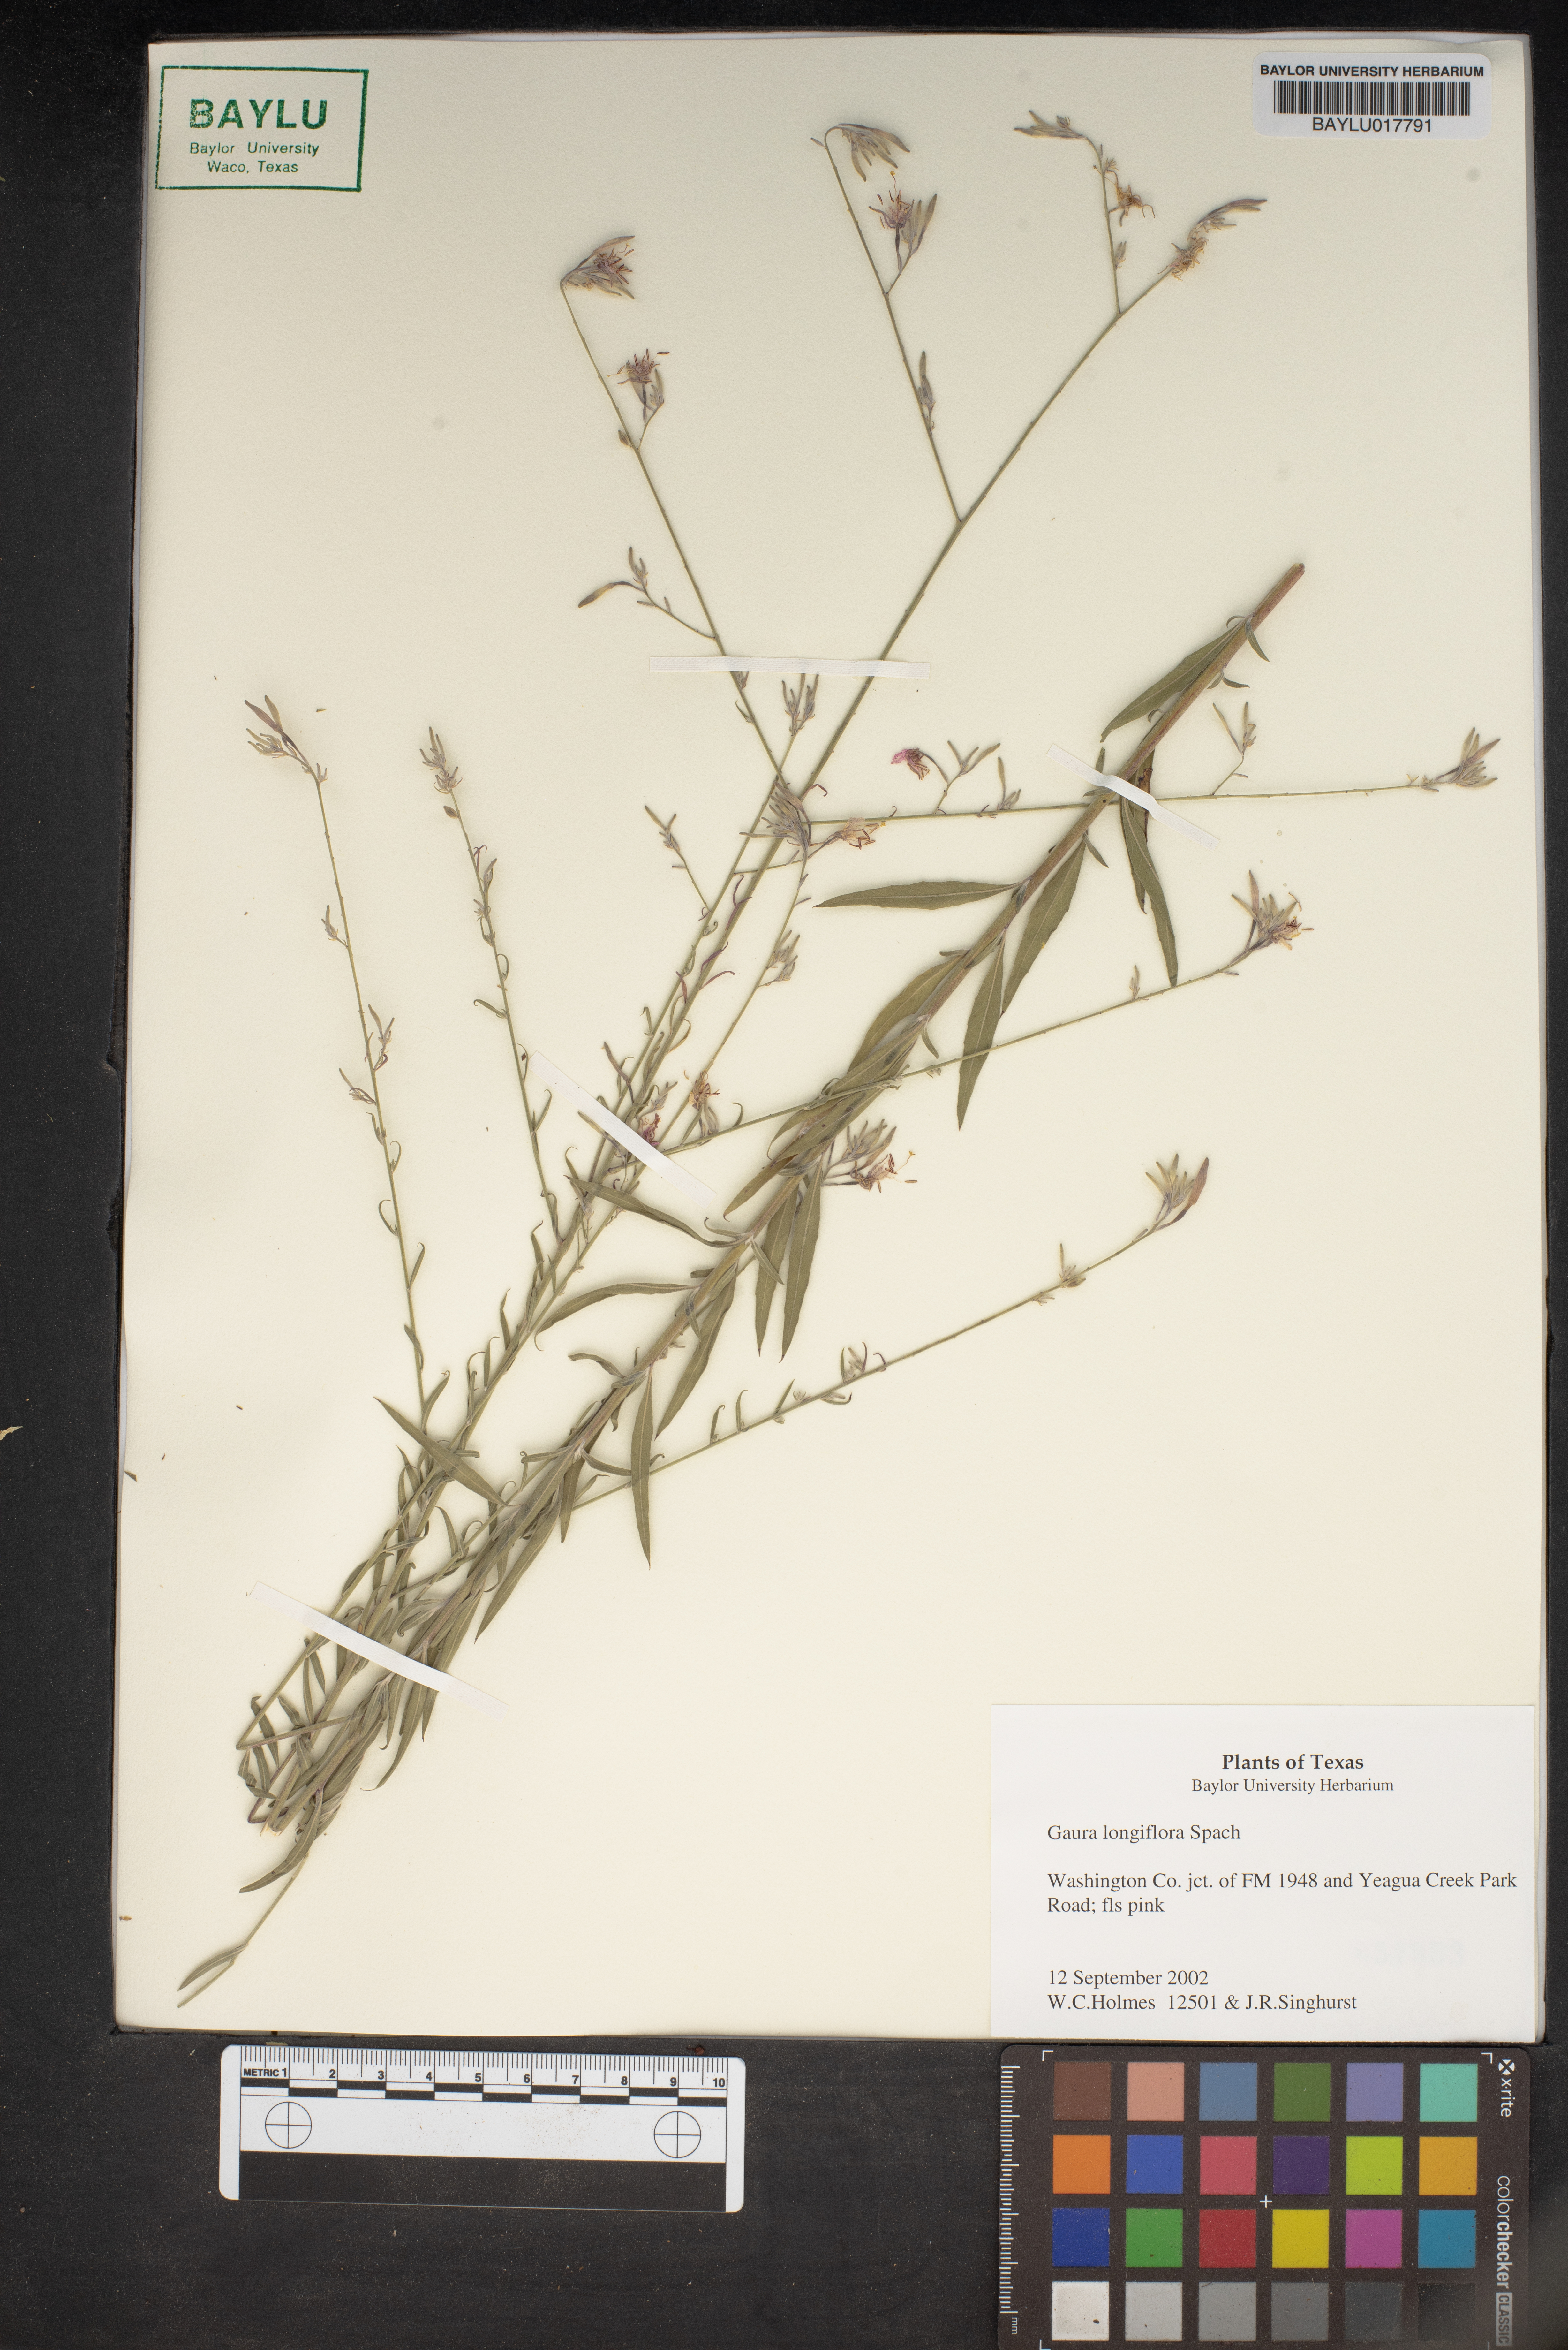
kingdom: Plantae
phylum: Tracheophyta
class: Magnoliopsida
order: Myrtales
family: Onagraceae
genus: Oenothera
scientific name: Oenothera filiformis
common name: Longflower beeblossom
